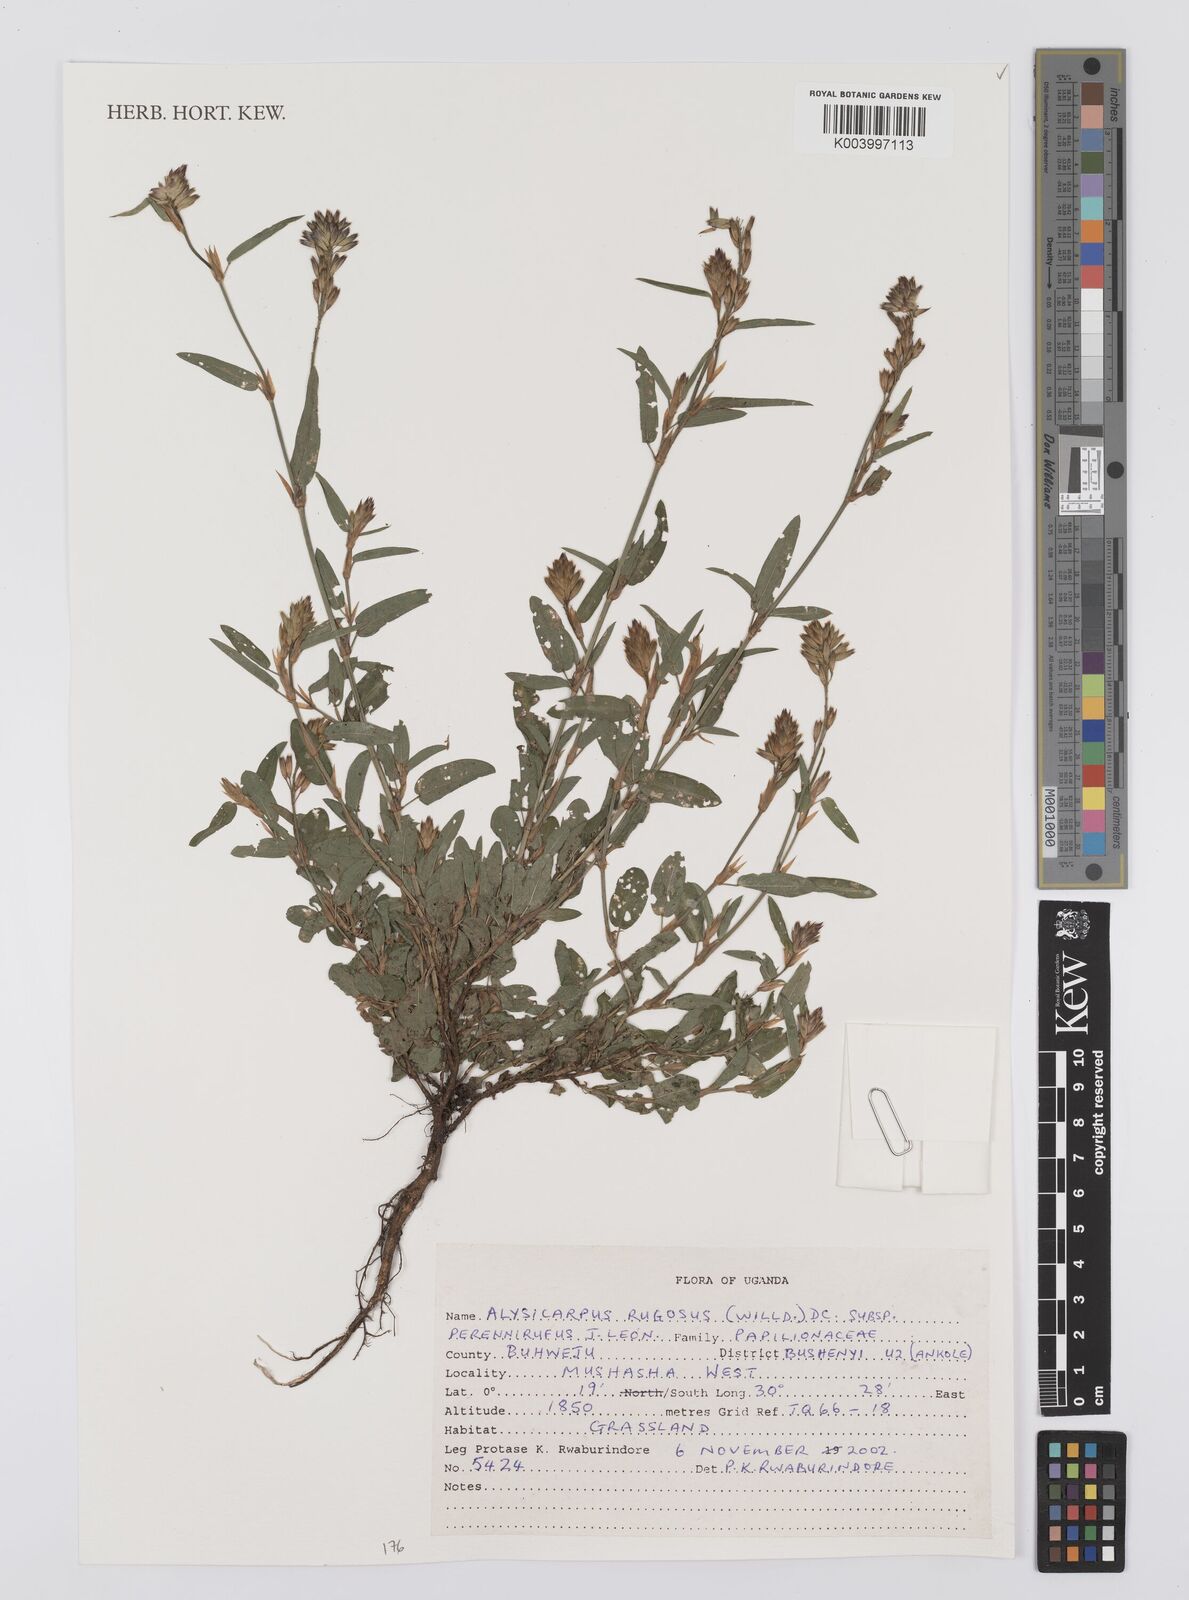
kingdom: Plantae
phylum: Tracheophyta
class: Magnoliopsida
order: Fabales
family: Fabaceae
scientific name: Fabaceae
